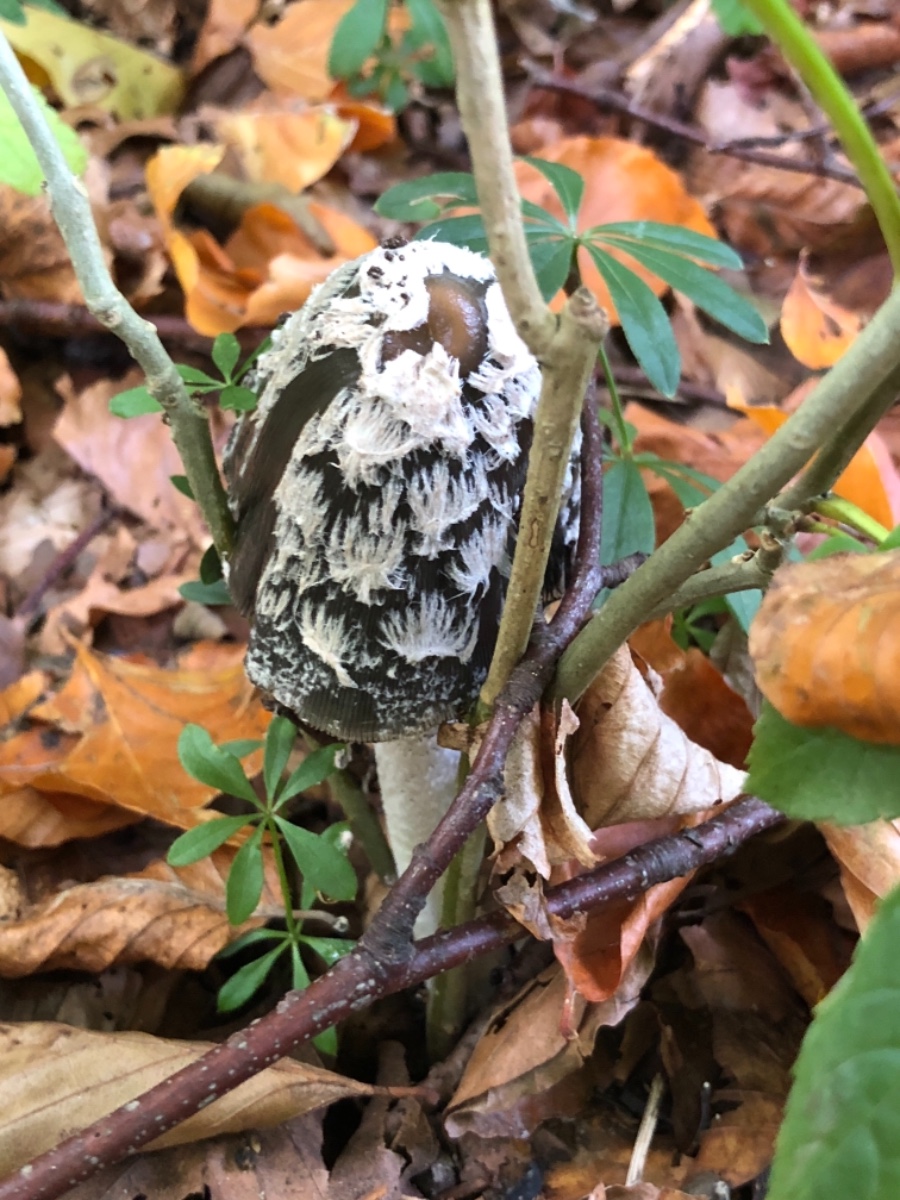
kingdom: Fungi
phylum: Basidiomycota
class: Agaricomycetes
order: Agaricales
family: Psathyrellaceae
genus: Coprinopsis
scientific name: Coprinopsis picacea
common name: skade-blækhat
